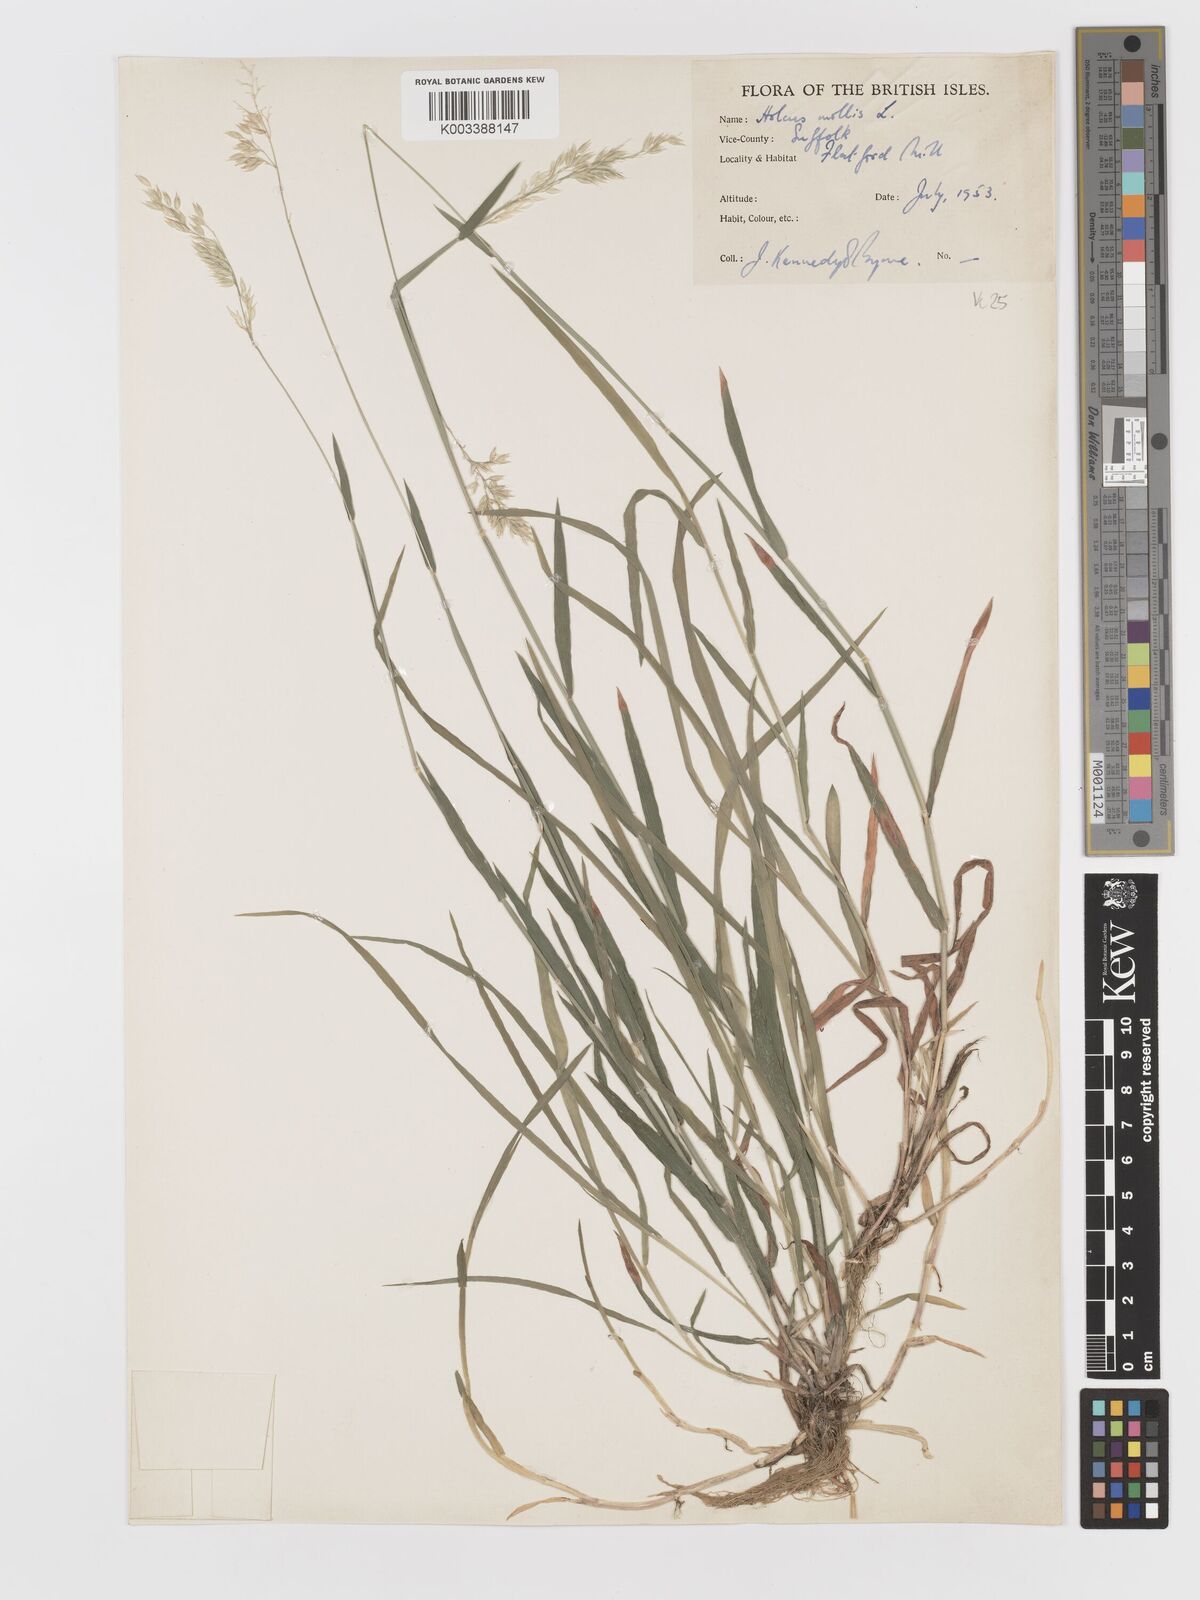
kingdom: Plantae
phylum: Tracheophyta
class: Liliopsida
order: Poales
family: Poaceae
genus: Holcus
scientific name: Holcus mollis
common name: Creeping velvetgrass
